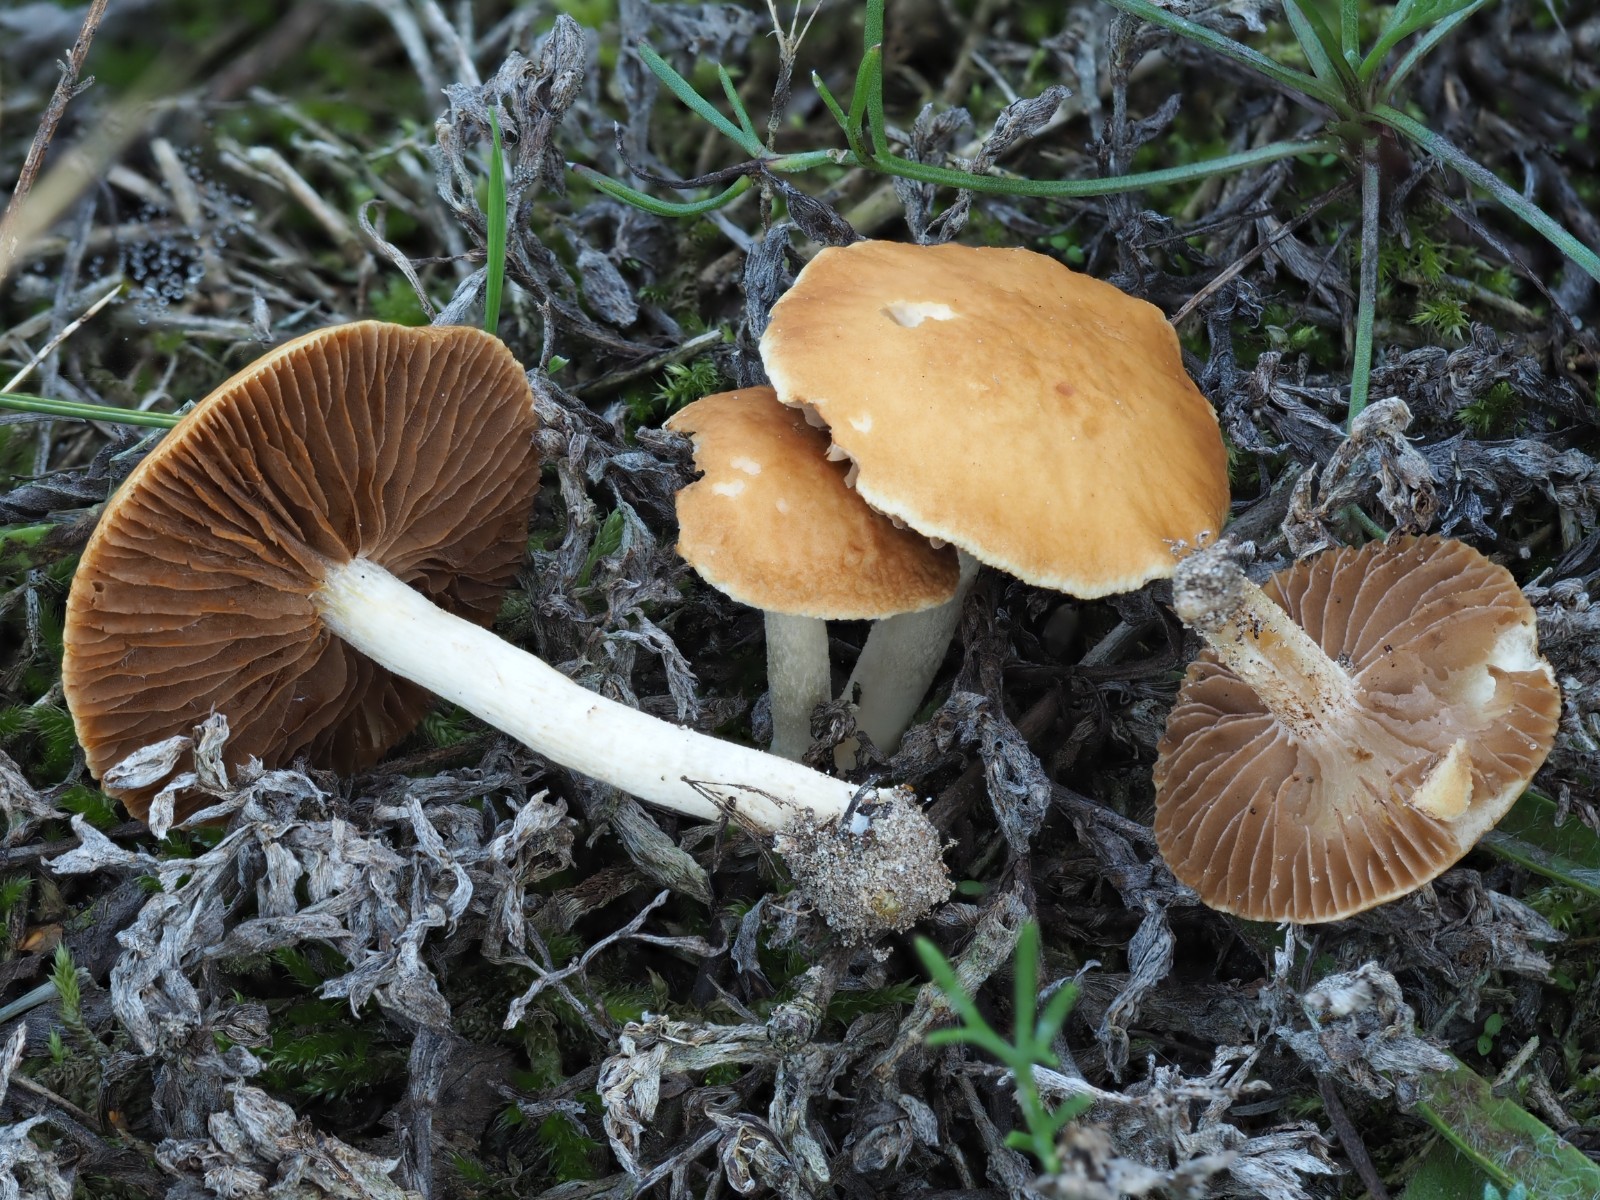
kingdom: Fungi
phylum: Basidiomycota
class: Agaricomycetes
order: Agaricales
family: Strophariaceae
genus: Agrocybe
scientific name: Agrocybe vervacti
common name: lav agerhat
